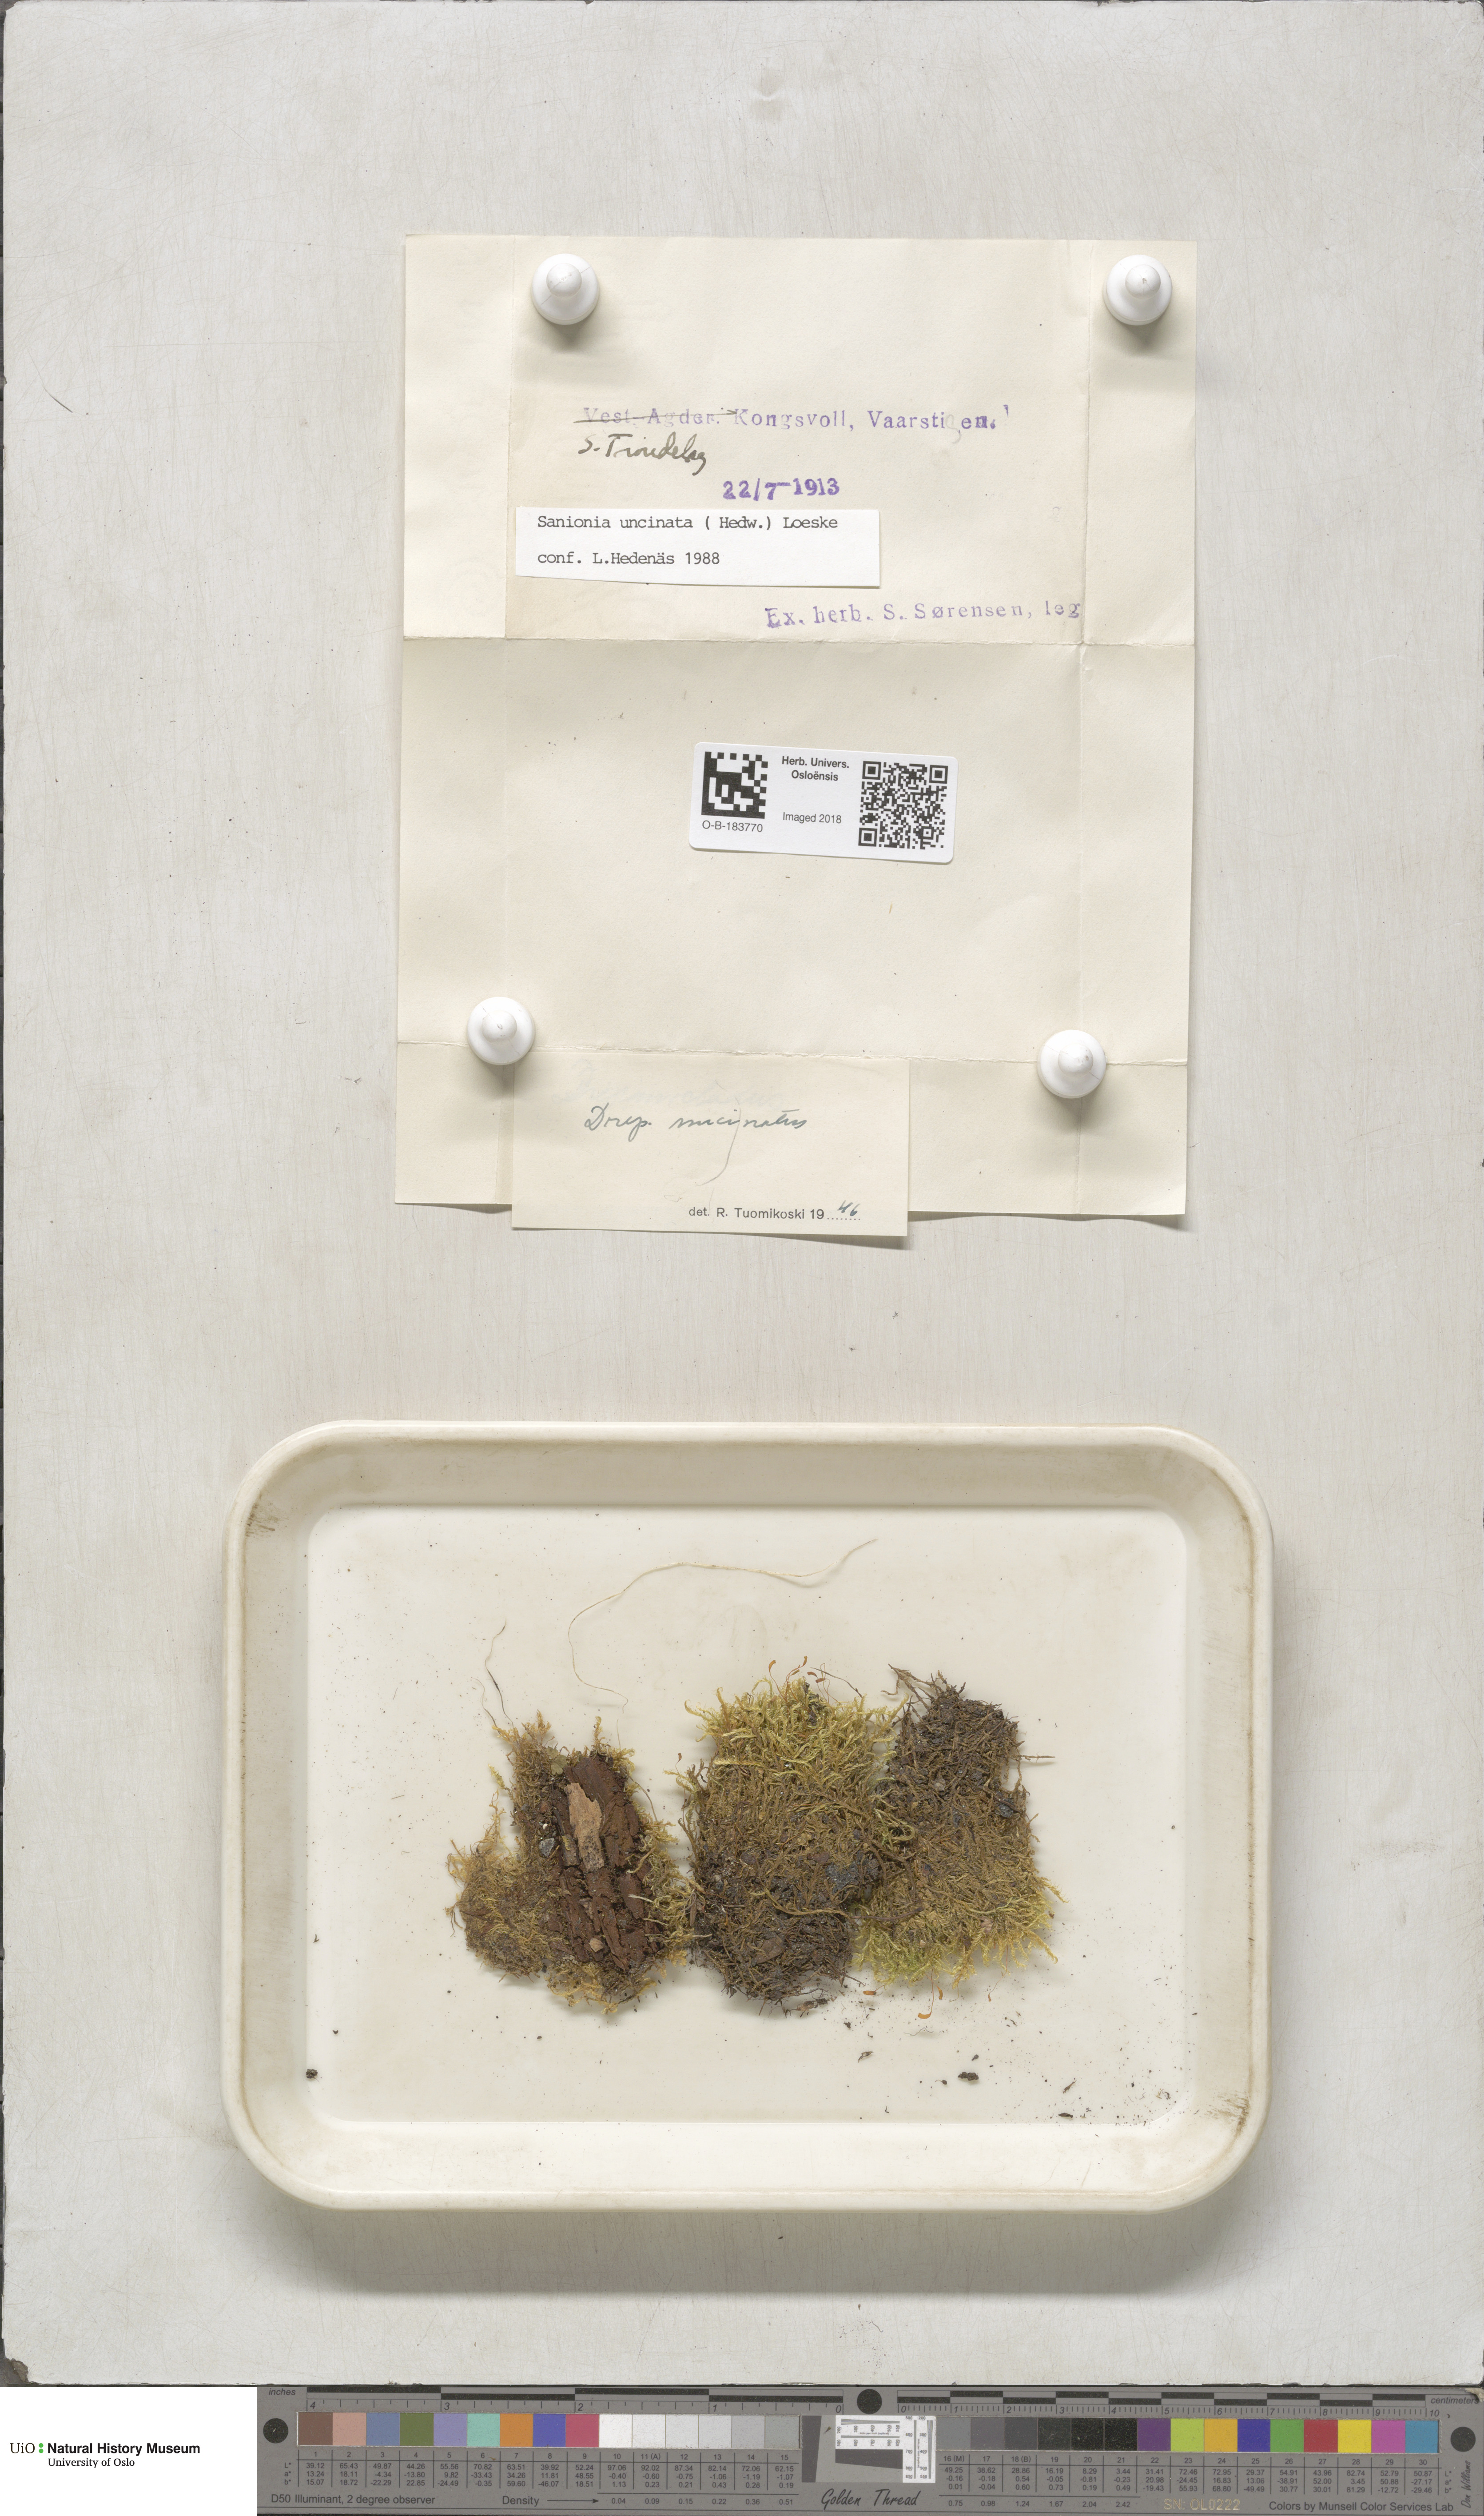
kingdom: Plantae
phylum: Bryophyta
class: Bryopsida
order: Hypnales
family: Scorpidiaceae
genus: Sanionia
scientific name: Sanionia uncinata
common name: Sickle moss
